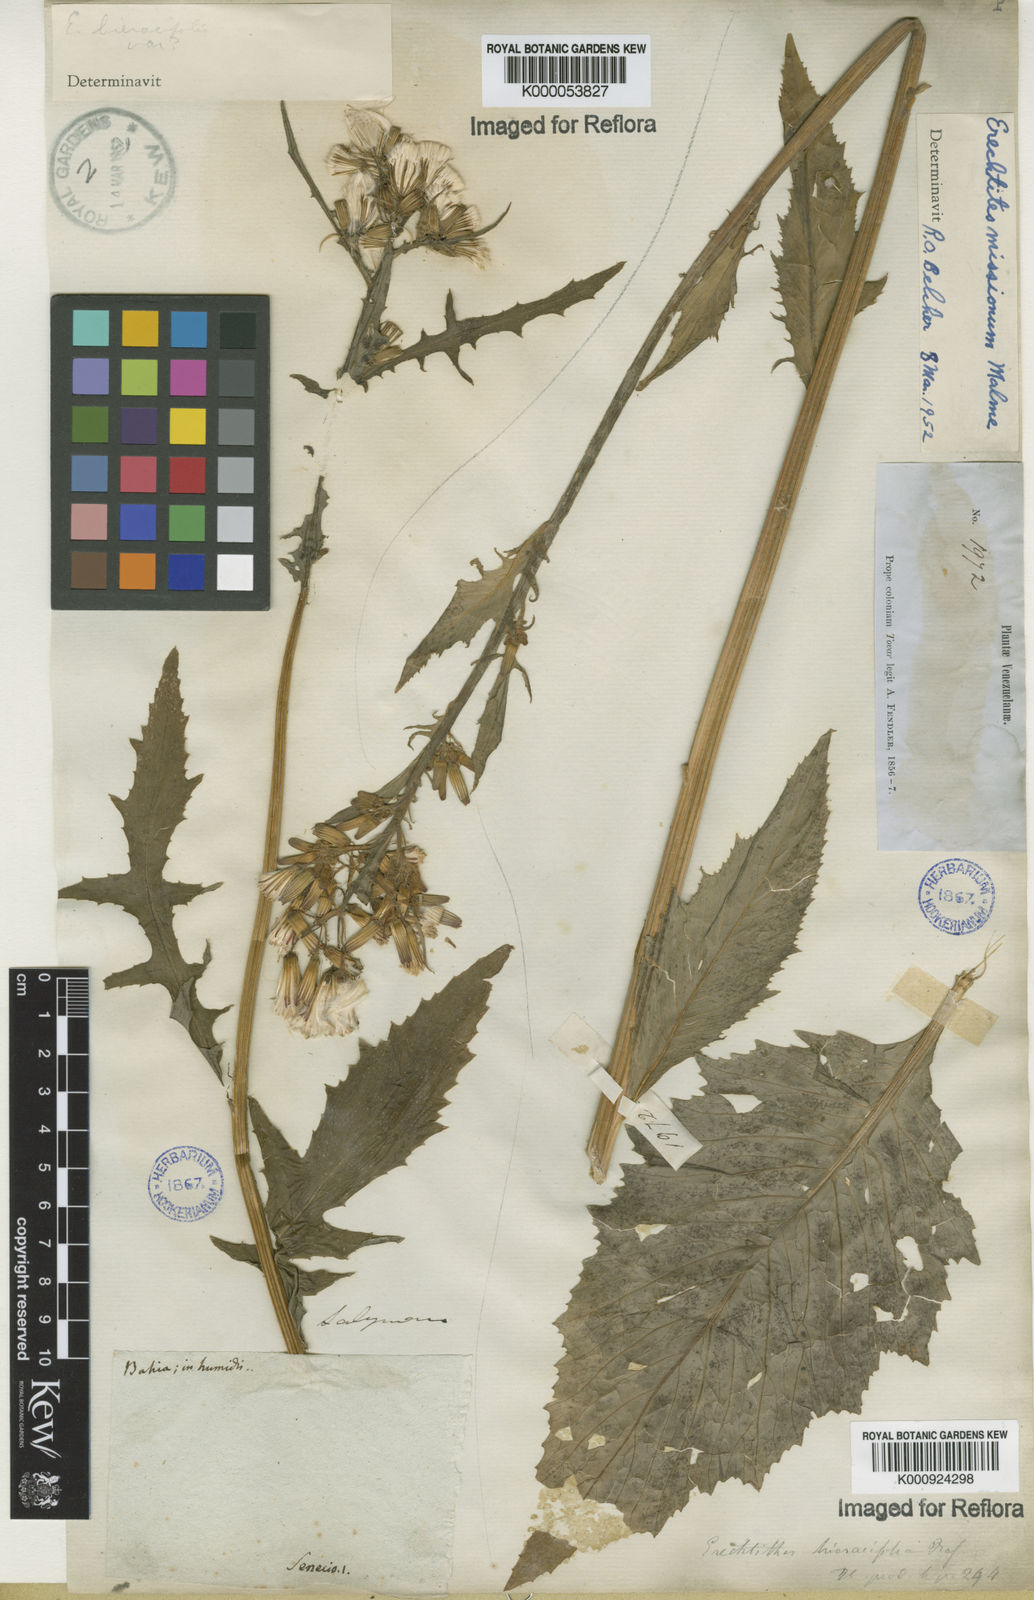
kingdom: Plantae
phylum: Tracheophyta
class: Magnoliopsida
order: Asterales
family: Asteraceae
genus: Erechtites
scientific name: Erechtites hieraciifolius
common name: American burnweed
